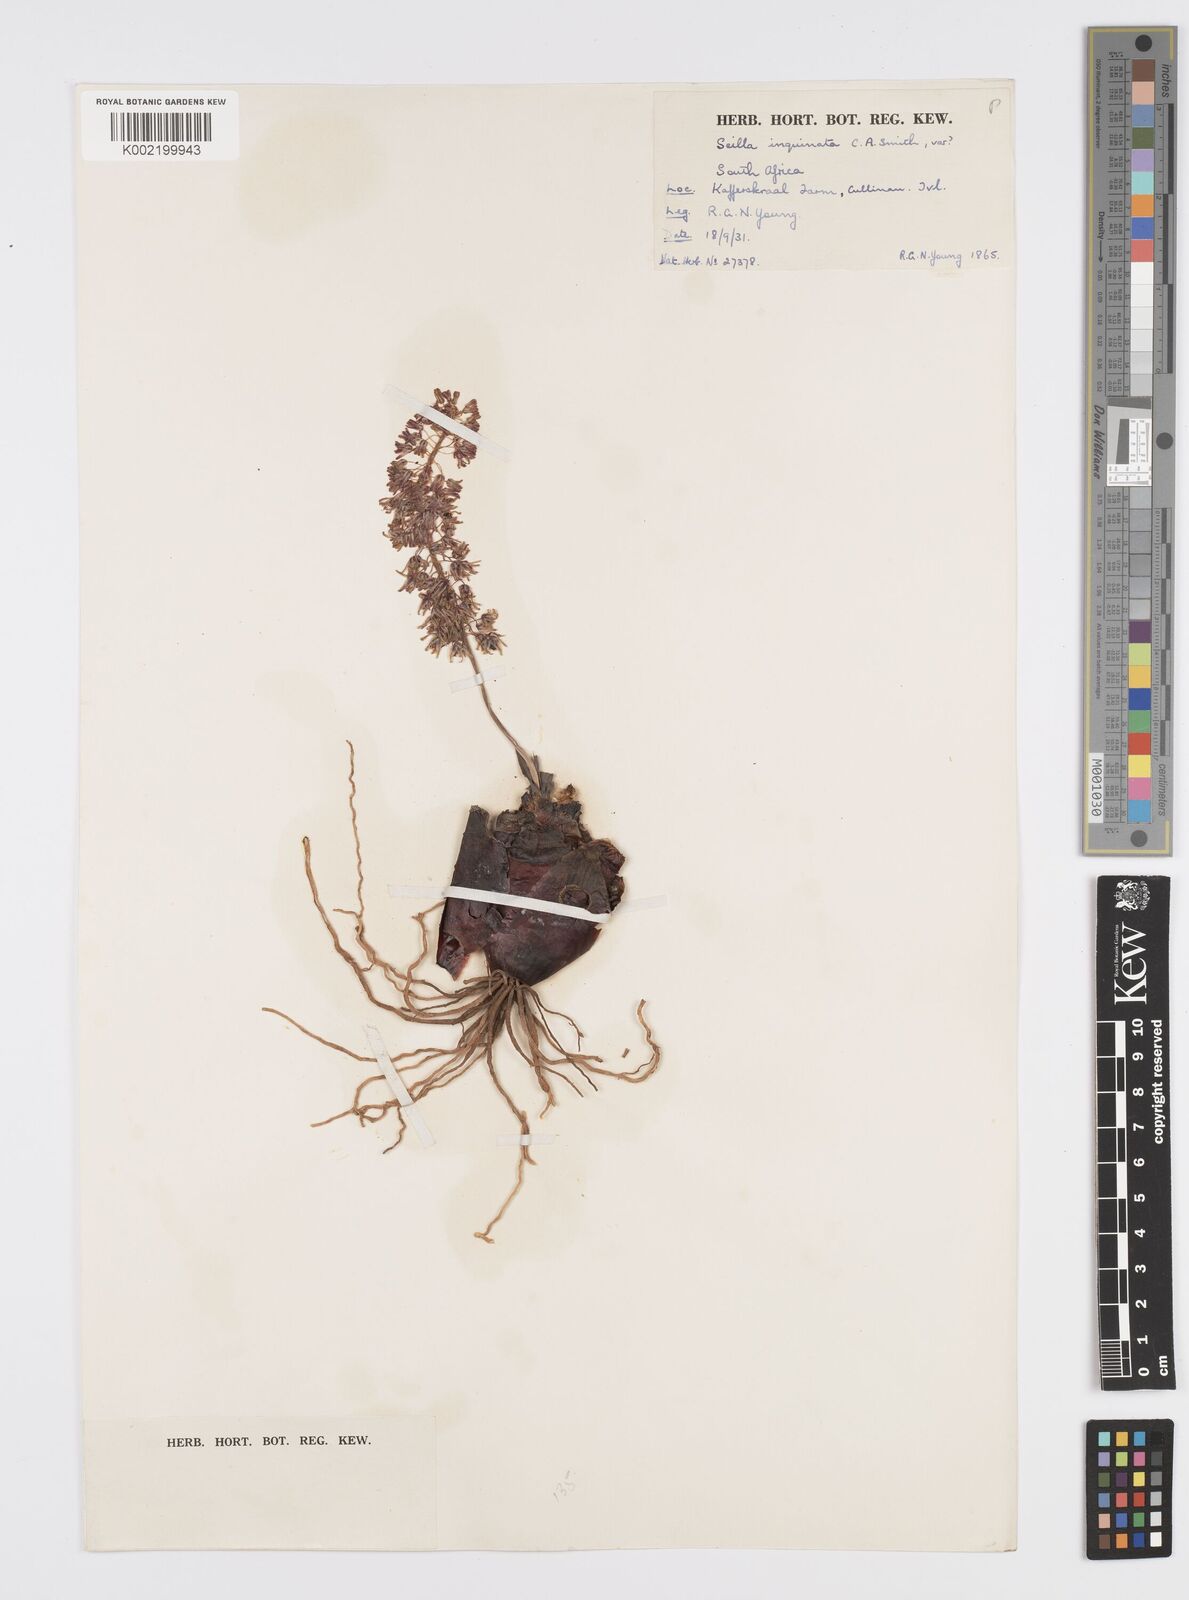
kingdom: Plantae
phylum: Tracheophyta
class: Liliopsida
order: Asparagales
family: Asparagaceae
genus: Ledebouria
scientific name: Ledebouria inquinata
